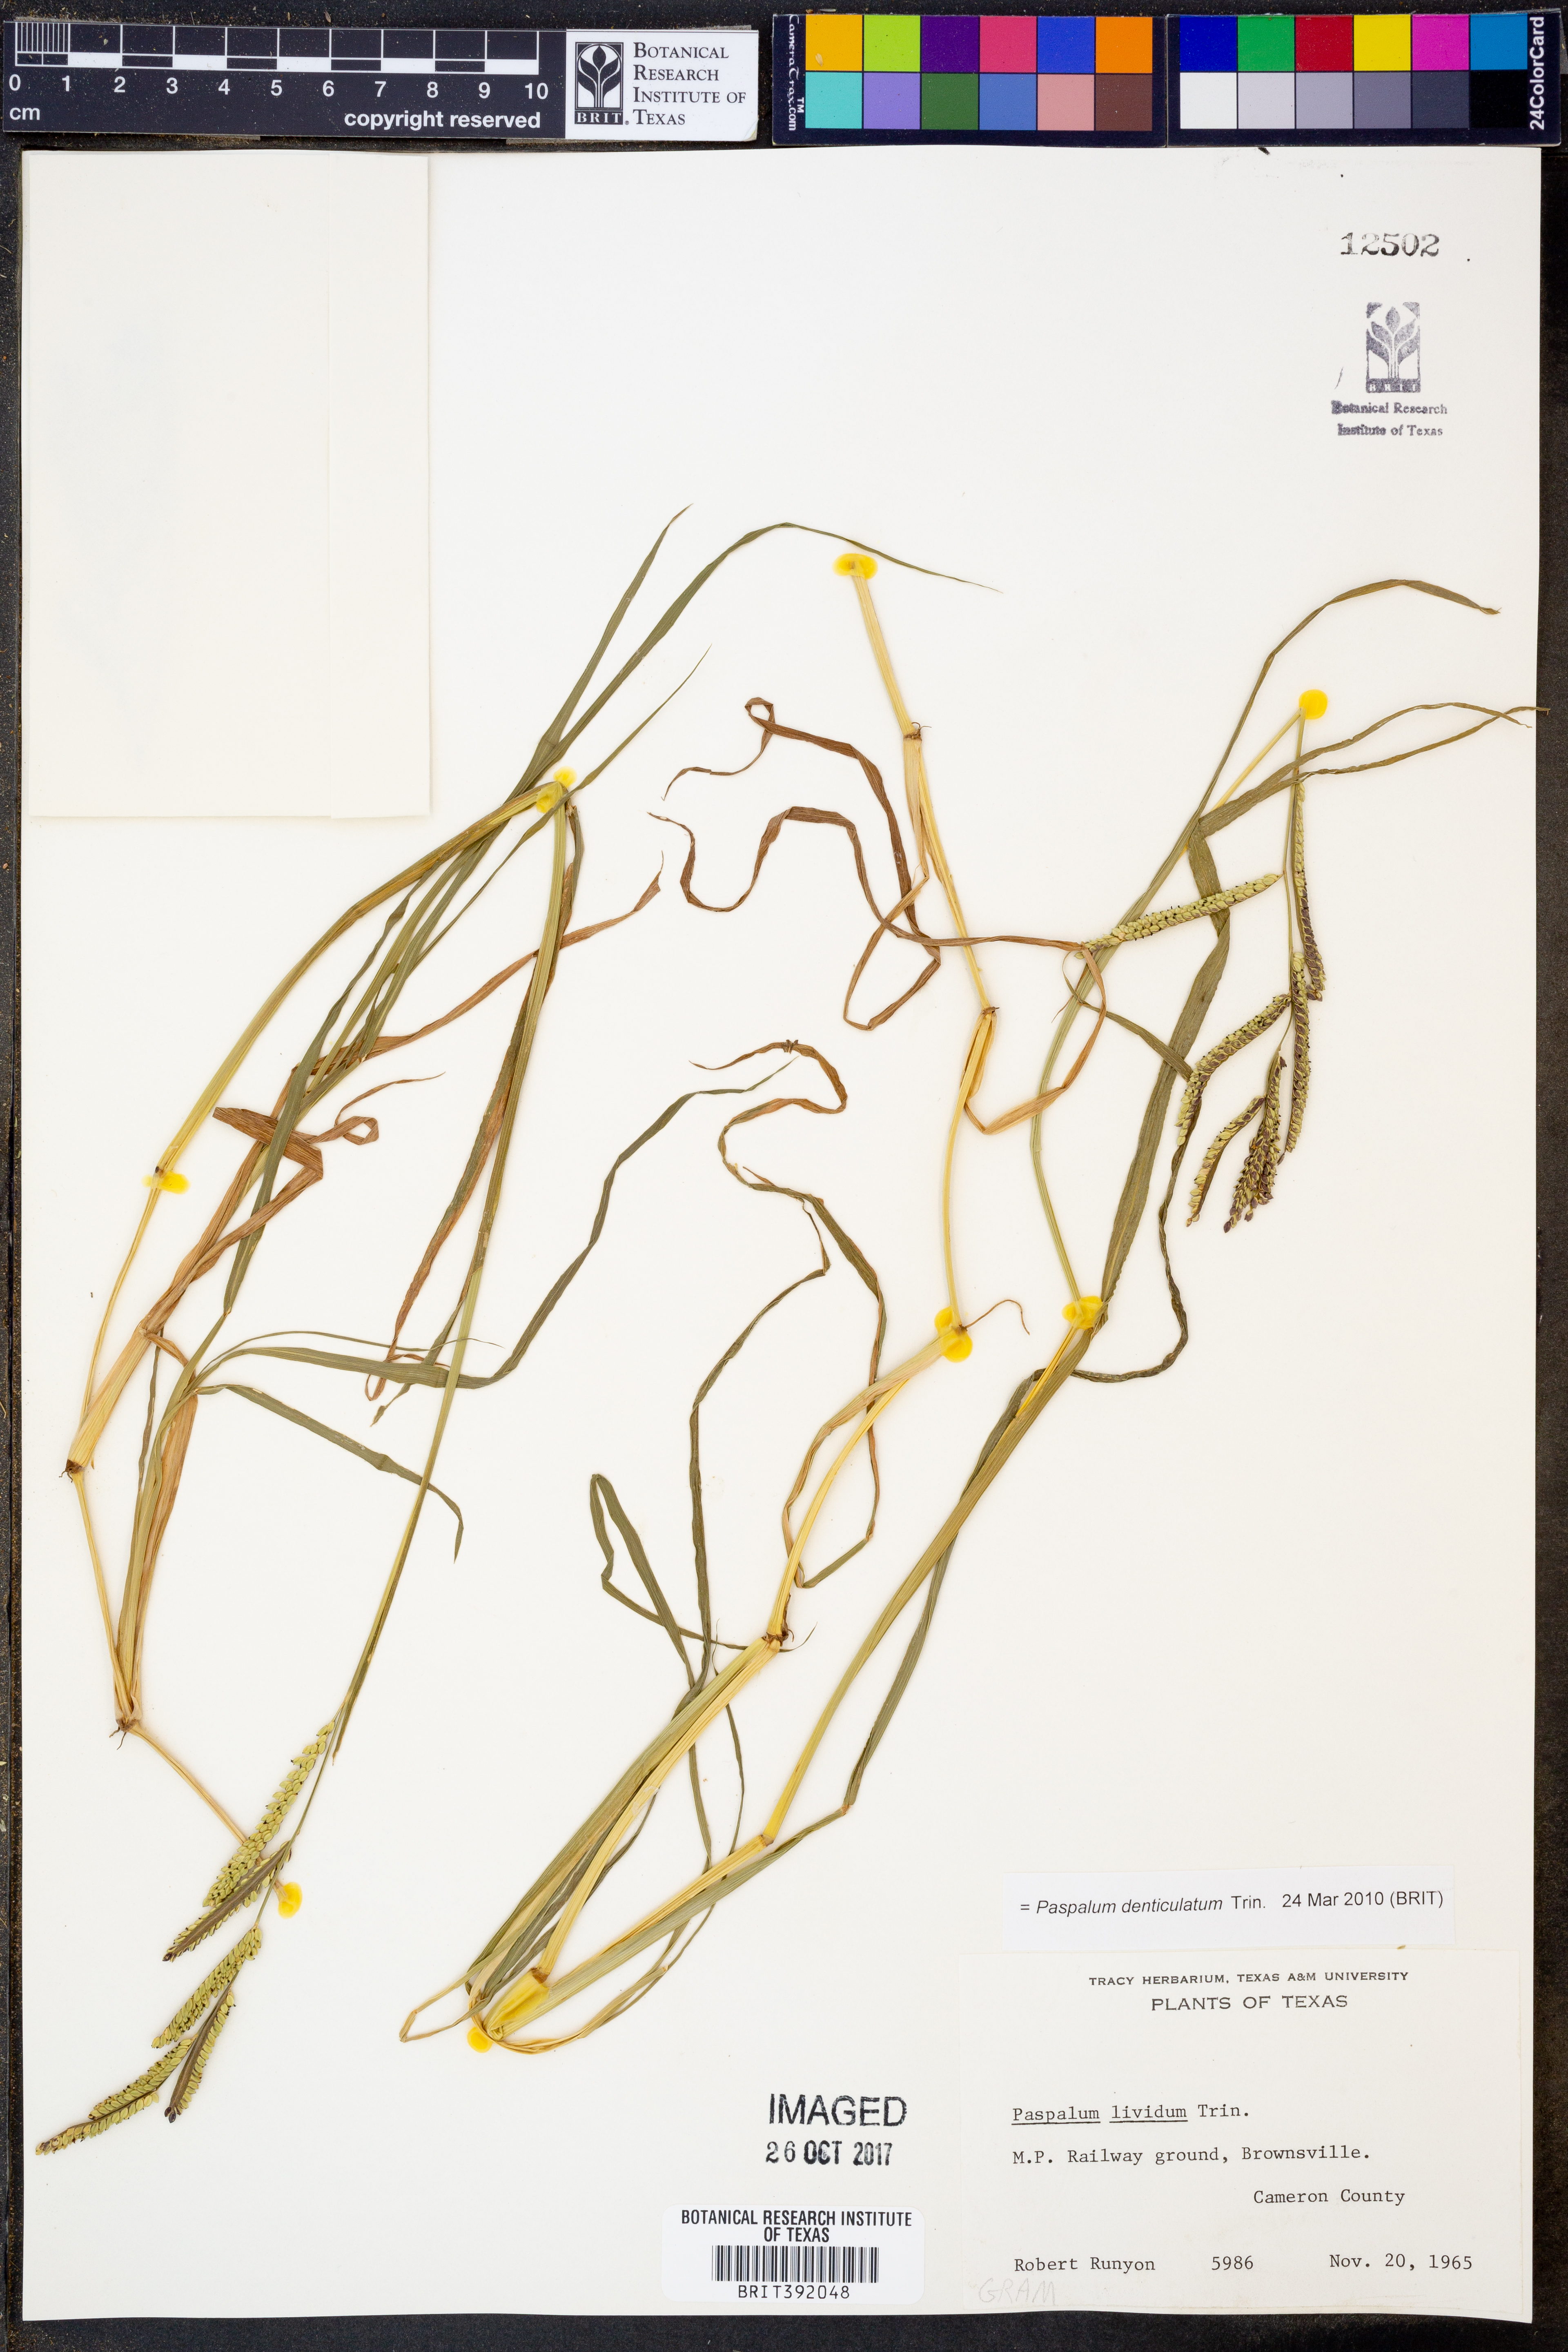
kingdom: Plantae
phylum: Tracheophyta
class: Liliopsida
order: Poales
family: Poaceae
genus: Paspalum
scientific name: Paspalum denticulatum
